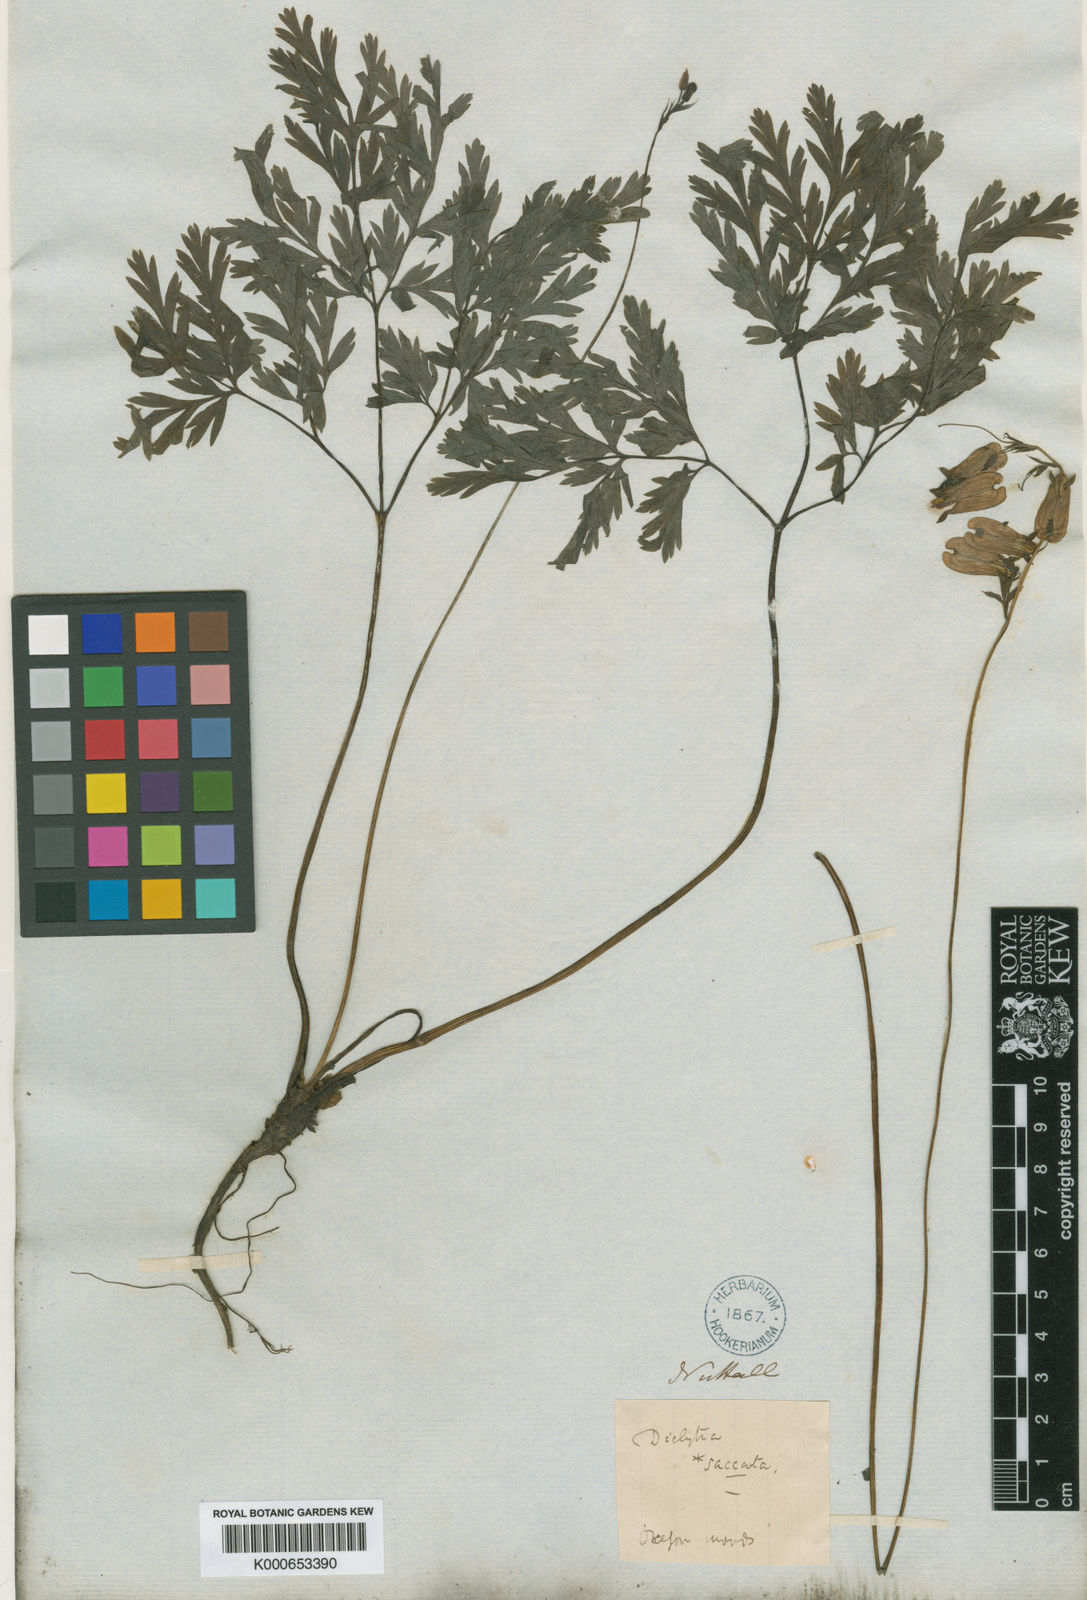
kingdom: Plantae
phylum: Tracheophyta
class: Magnoliopsida
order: Ranunculales
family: Papaveraceae
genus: Dicentra
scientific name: Dicentra formosa
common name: Bleeding-heart
